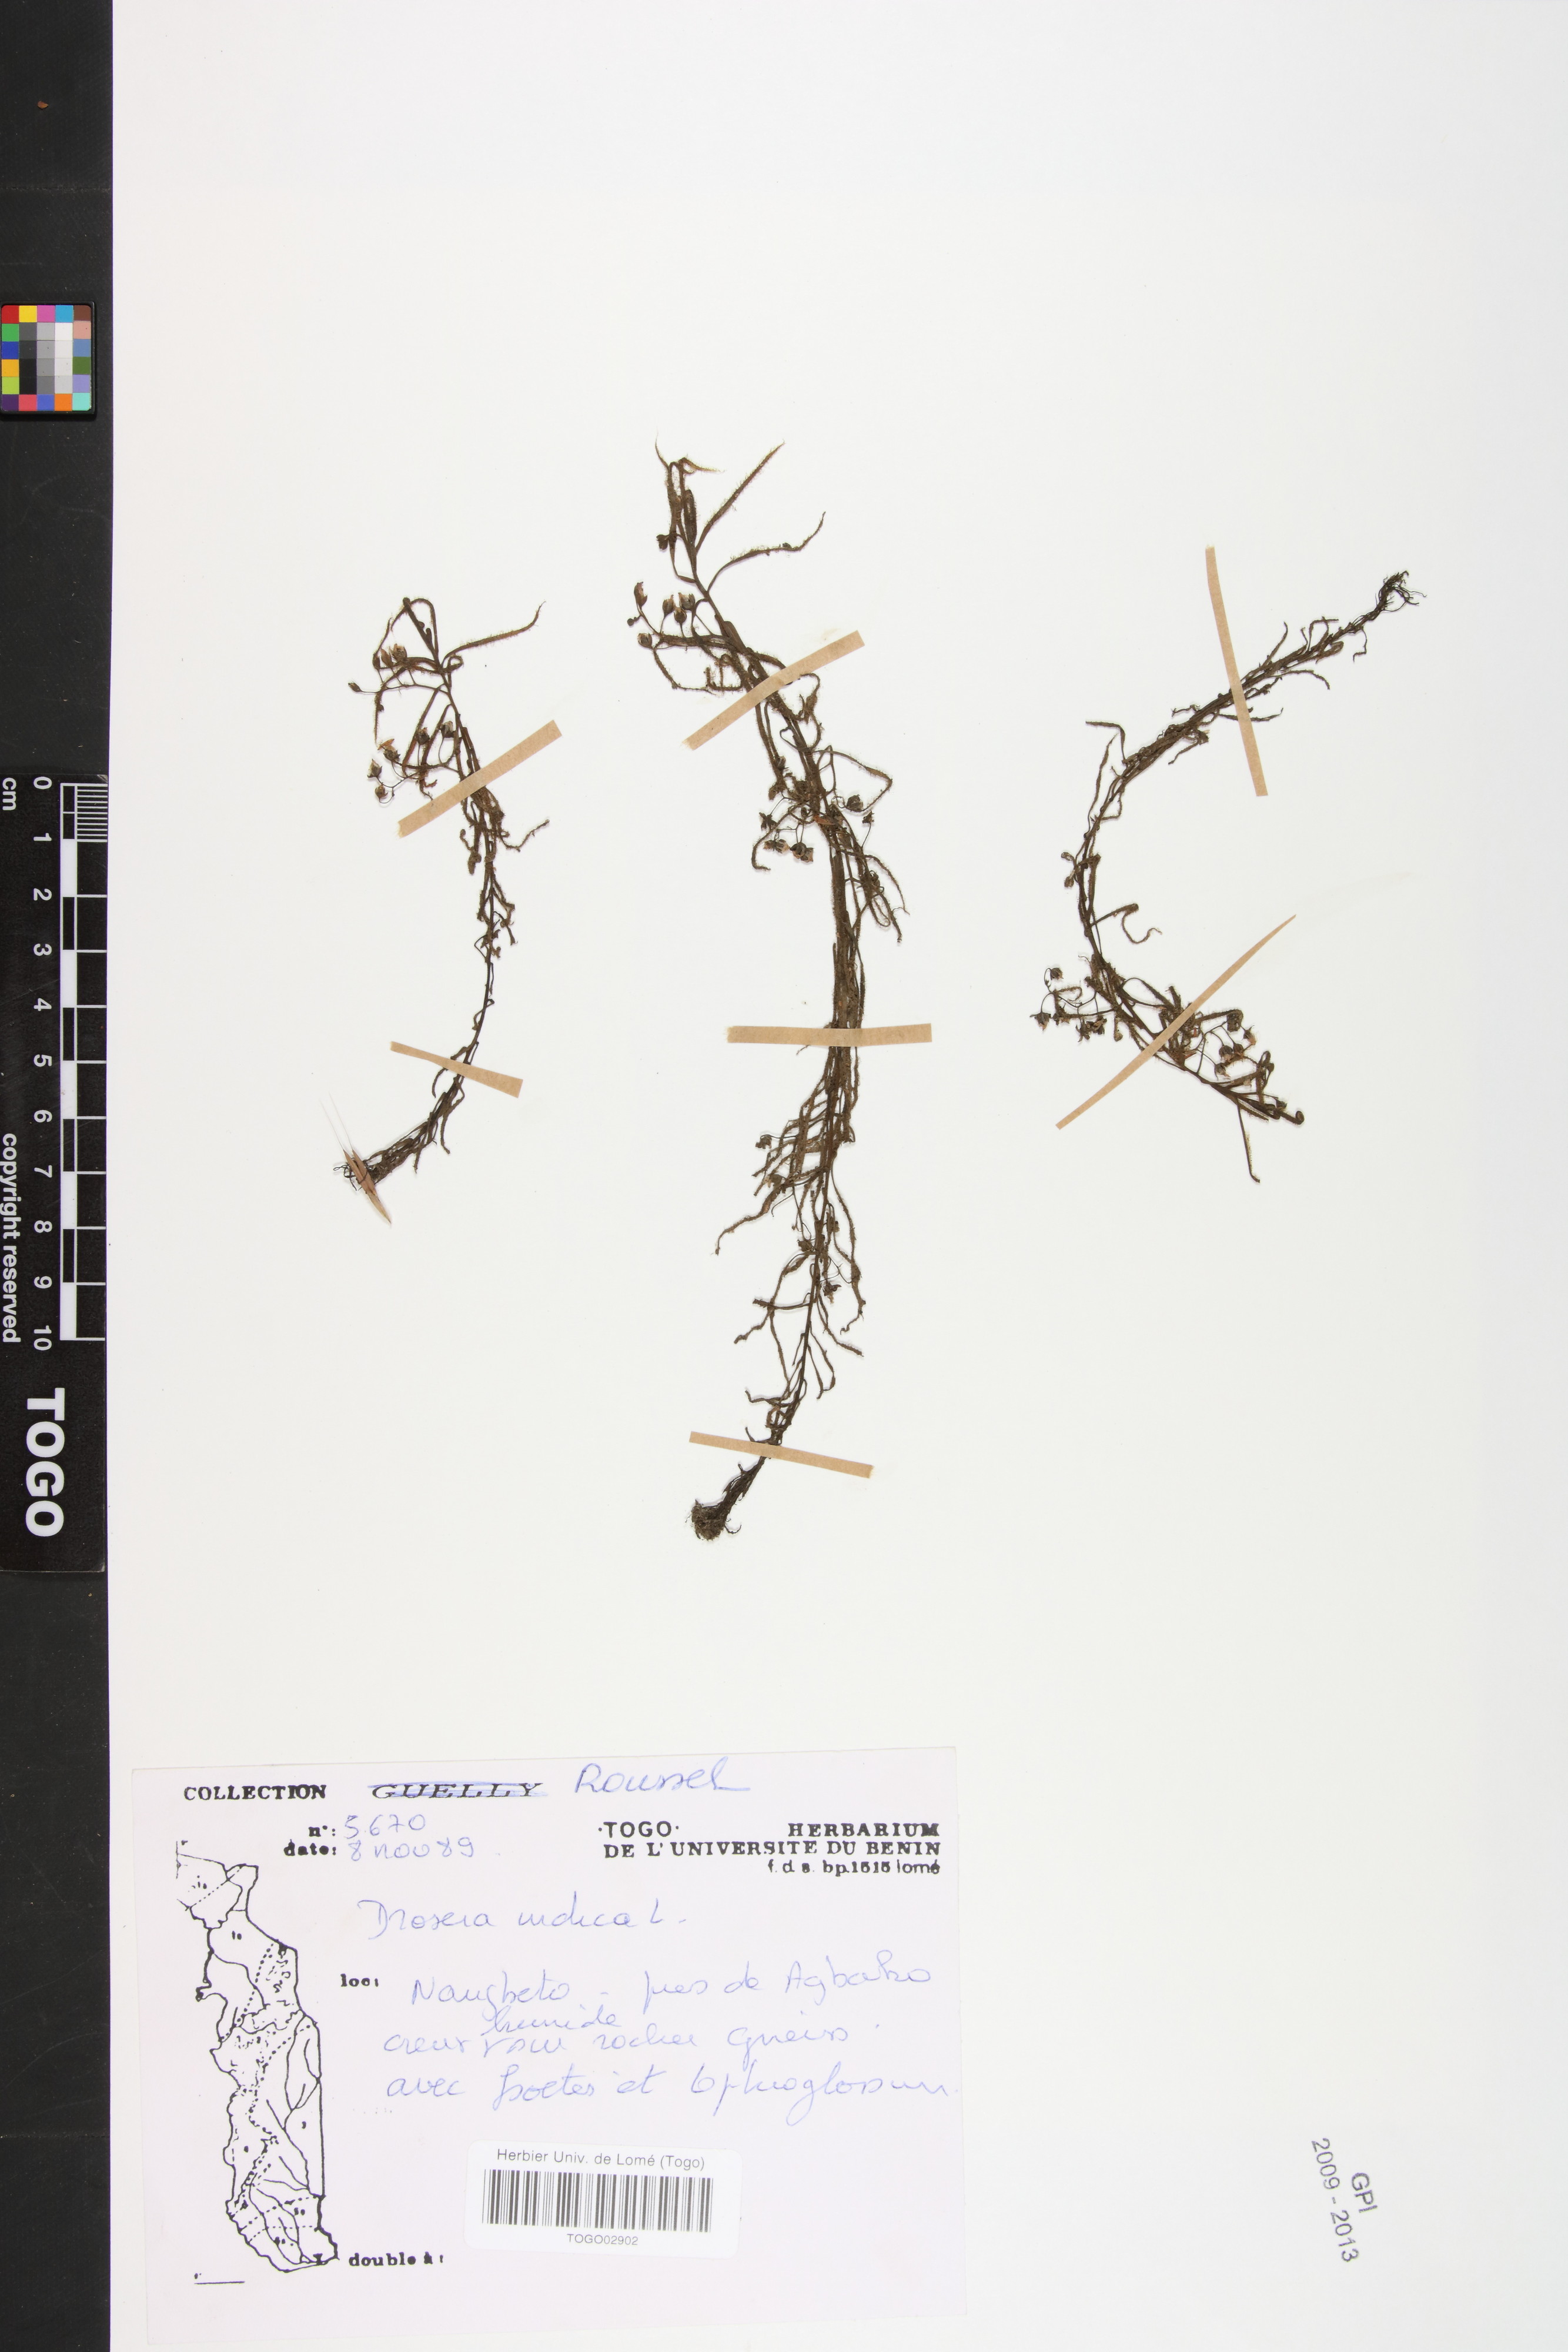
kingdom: Plantae
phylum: Tracheophyta
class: Magnoliopsida
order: Caryophyllales
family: Droseraceae
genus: Drosera
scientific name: Drosera indica
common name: Indian sundew
